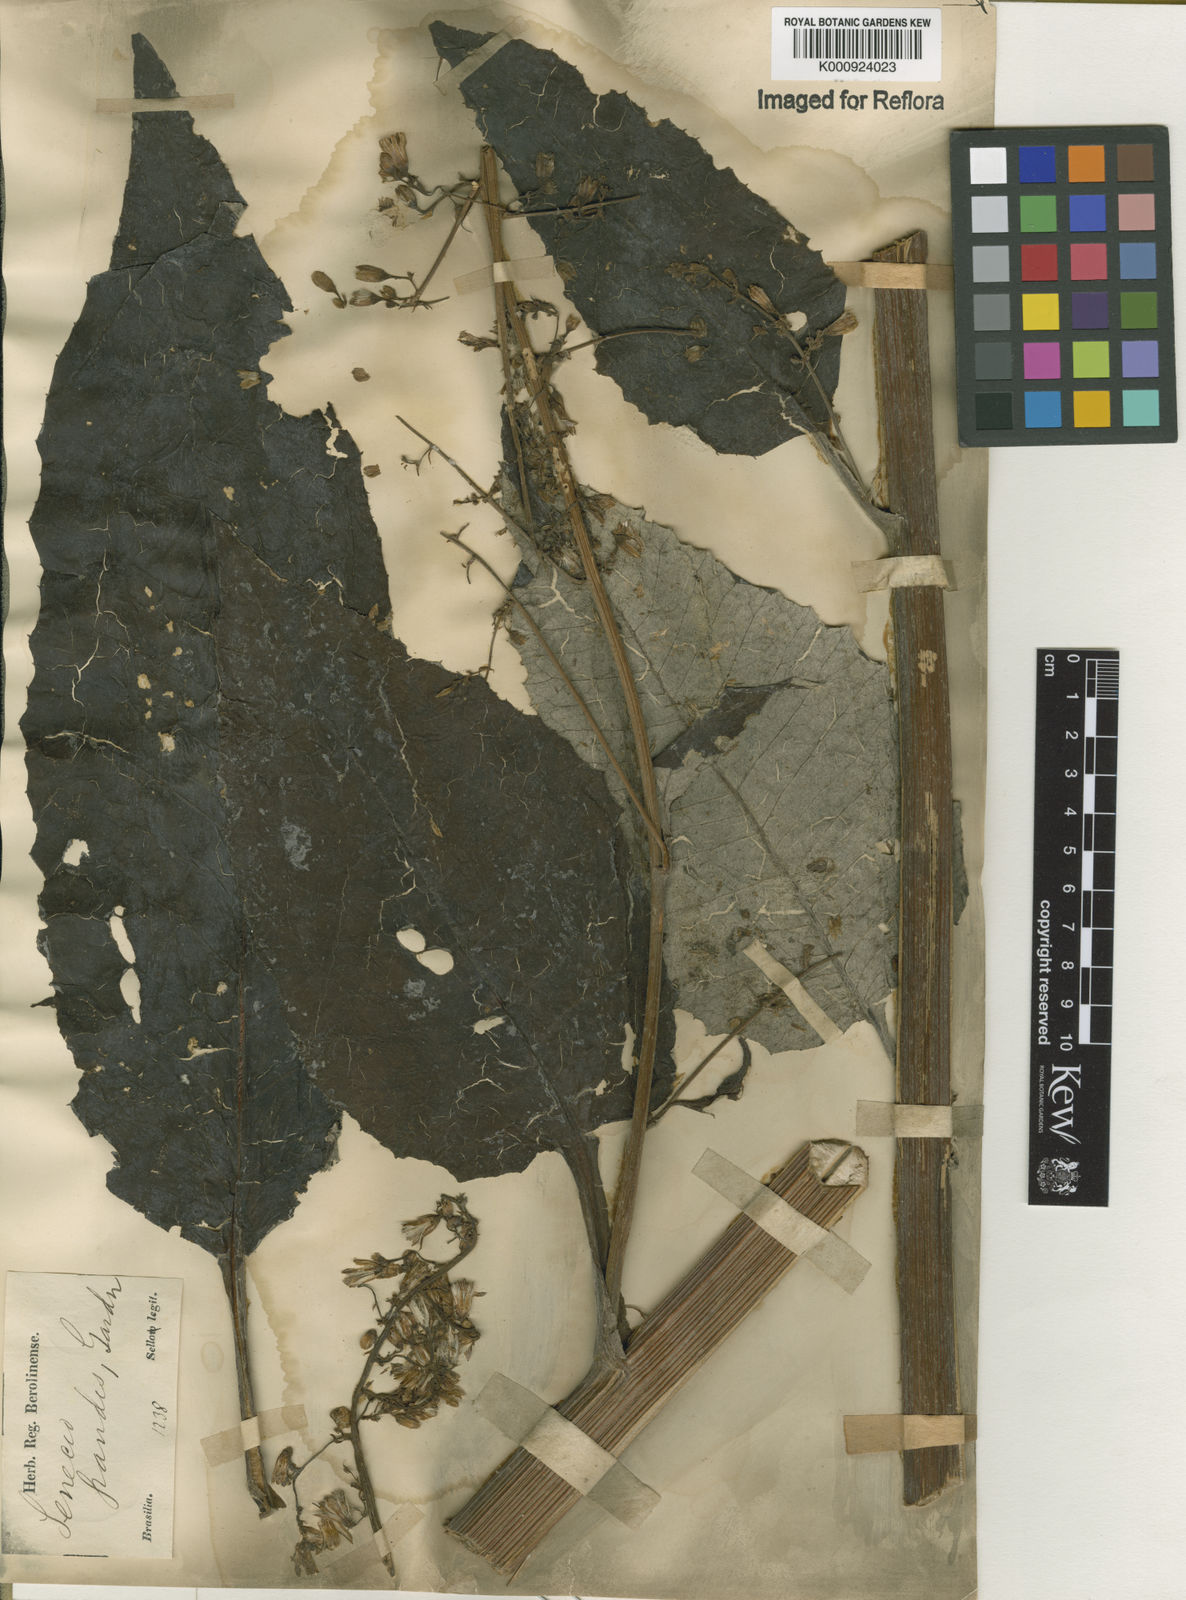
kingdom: Plantae
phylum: Tracheophyta
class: Magnoliopsida
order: Asterales
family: Asteraceae
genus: Senecio
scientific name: Senecio grandis
